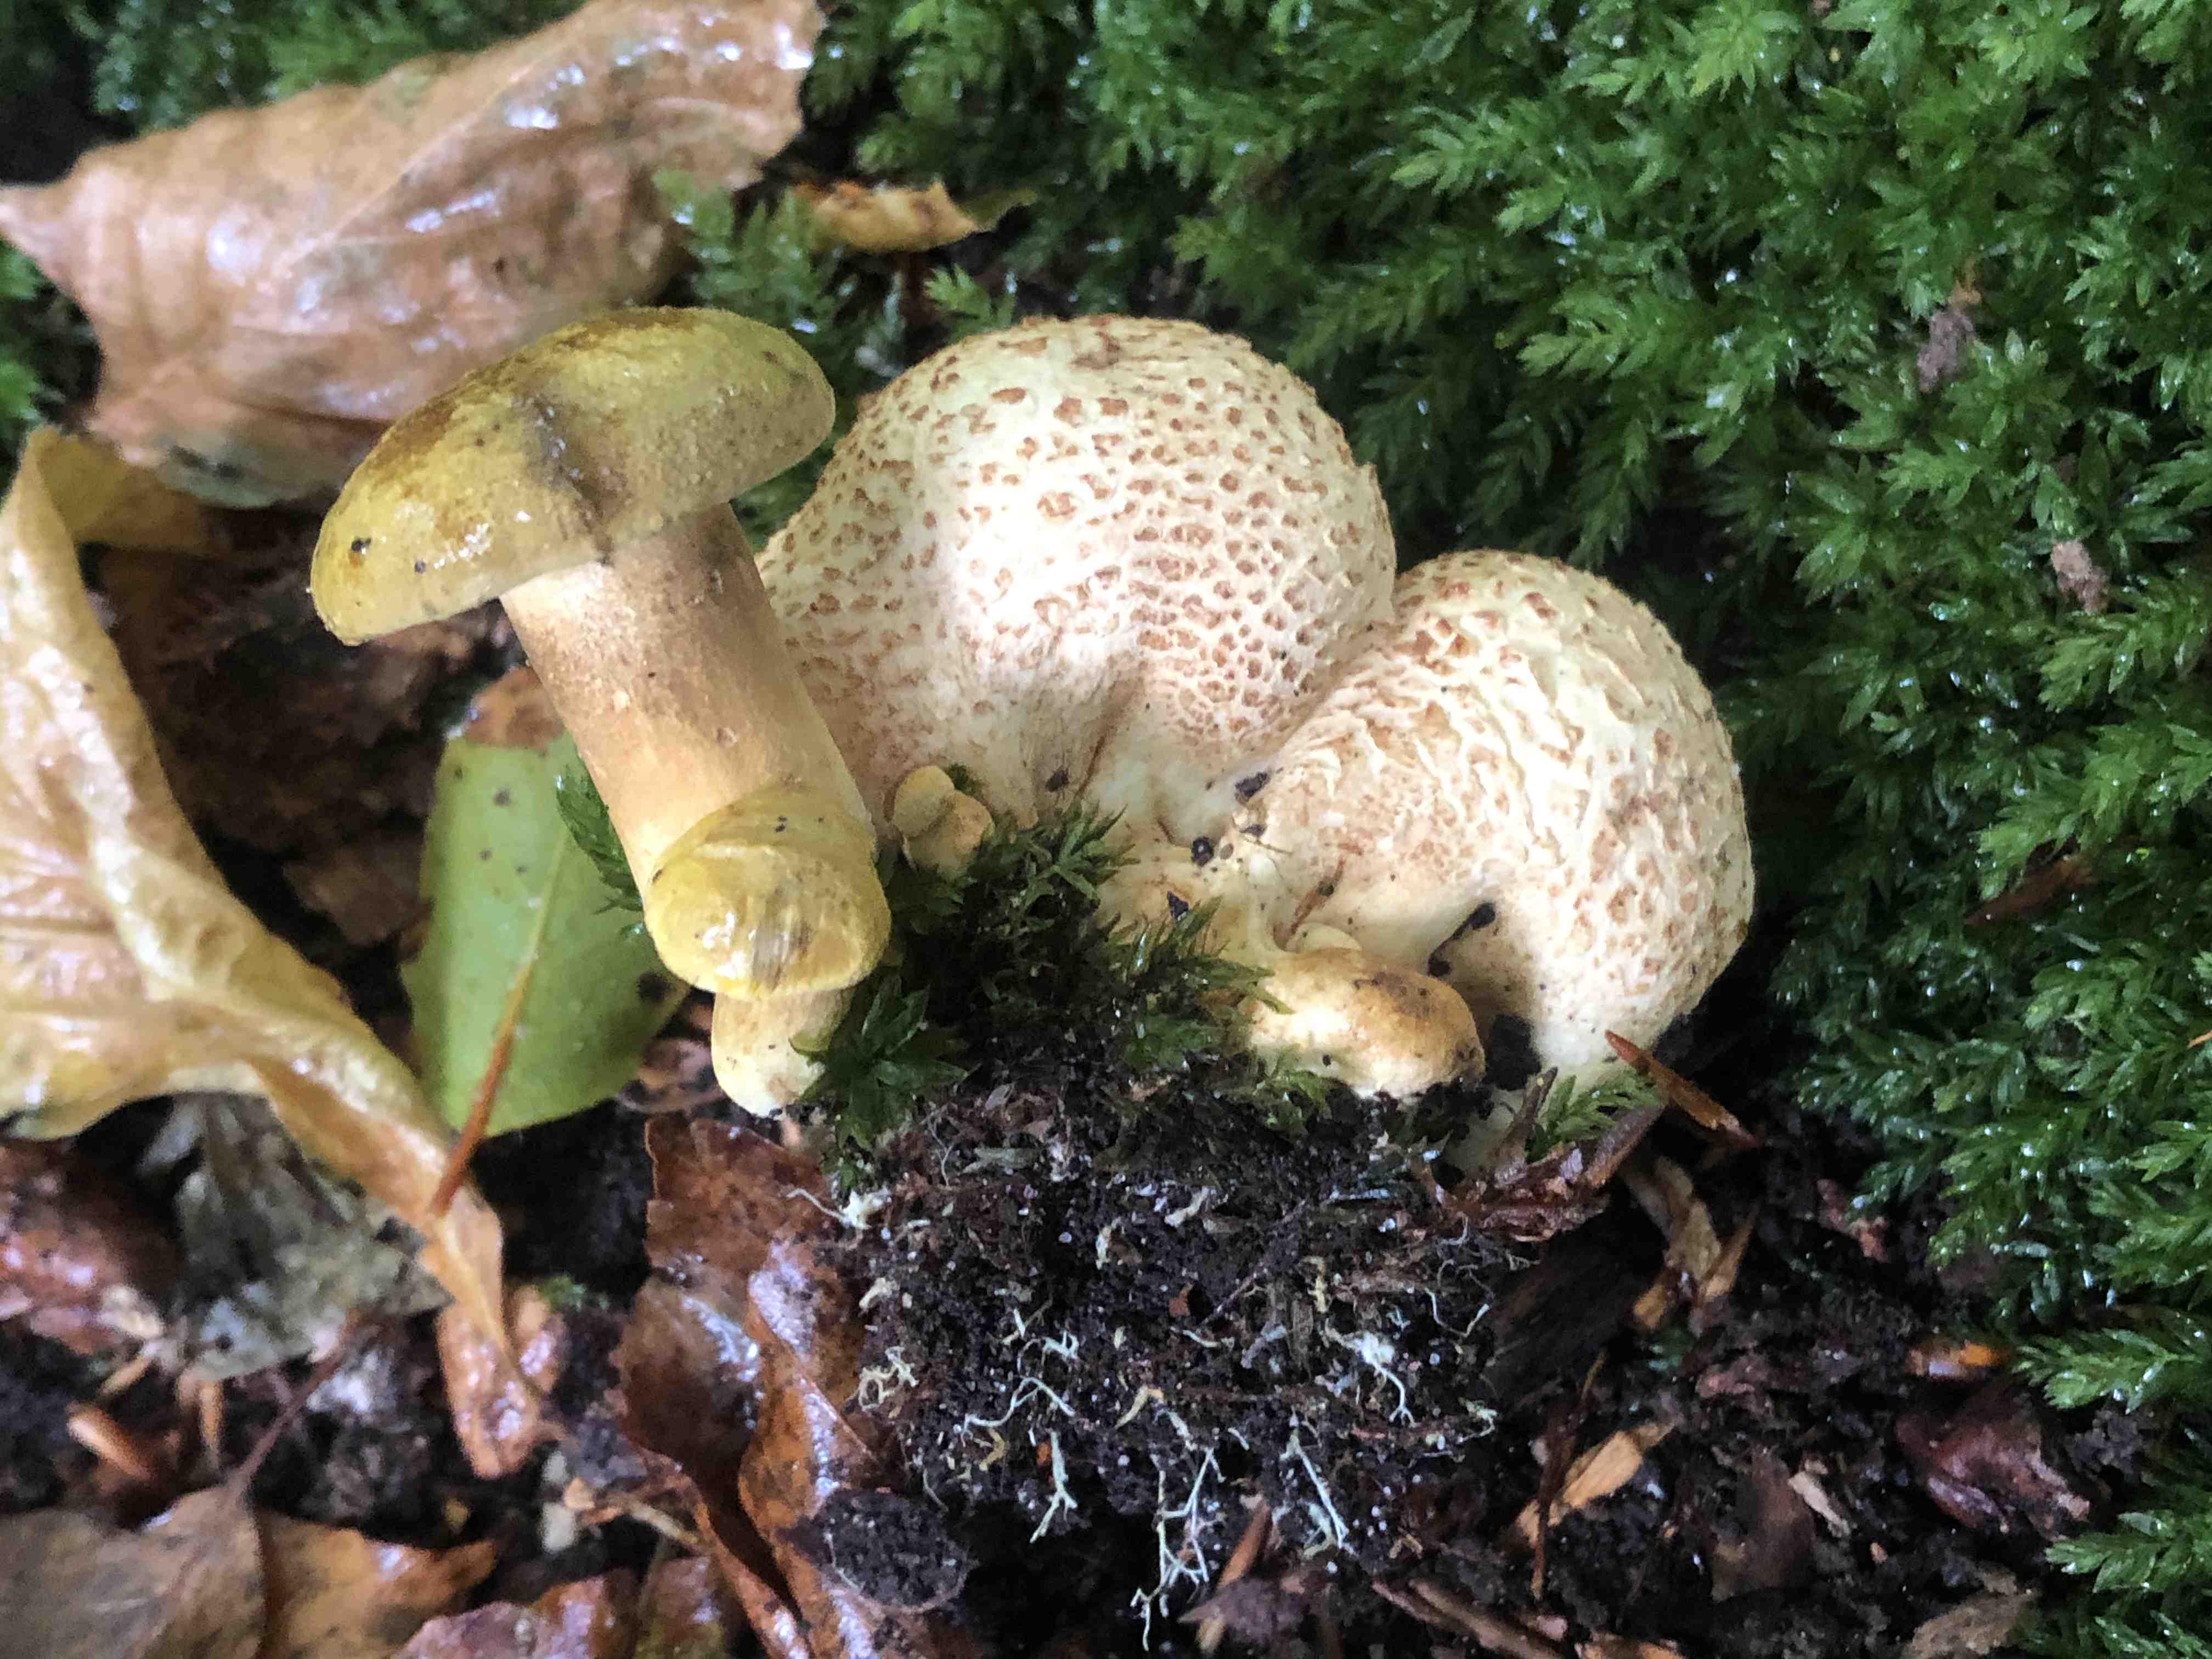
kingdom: Fungi
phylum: Basidiomycota
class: Agaricomycetes
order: Boletales
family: Boletaceae
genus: Pseudoboletus
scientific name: Pseudoboletus parasiticus
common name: snyltende rørhat
